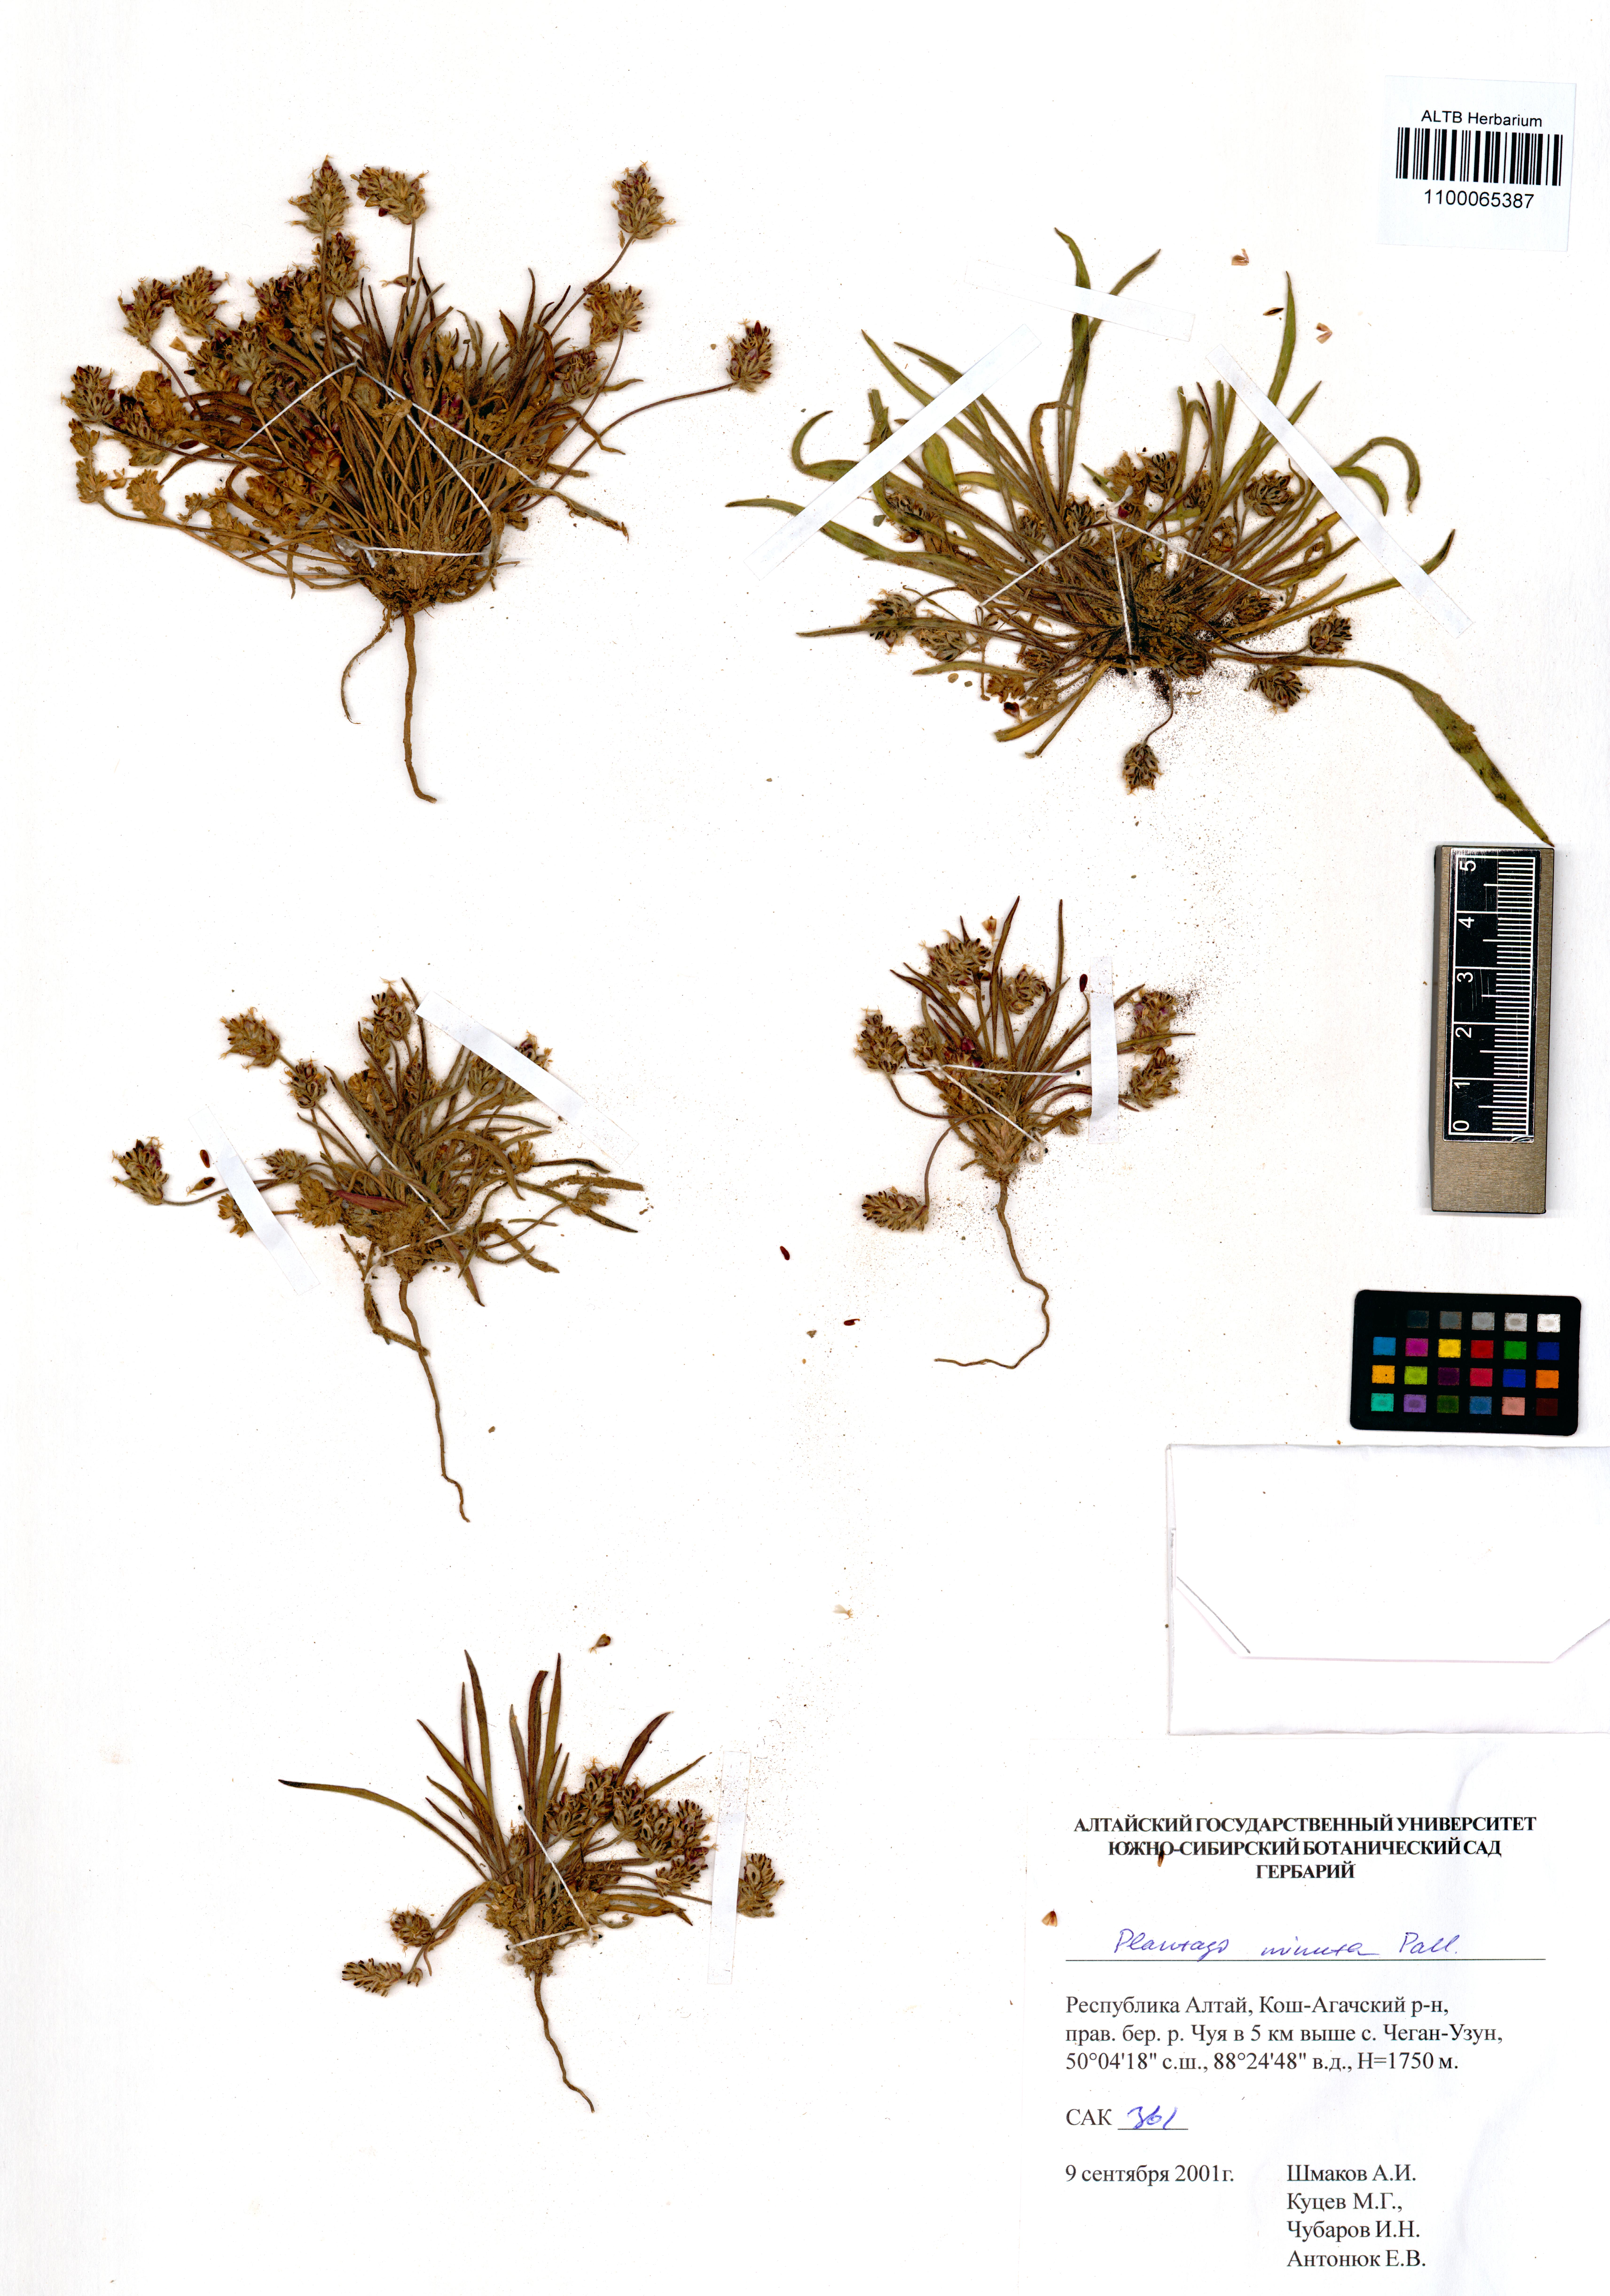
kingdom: Plantae
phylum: Tracheophyta
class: Magnoliopsida
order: Lamiales
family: Plantaginaceae
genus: Plantago
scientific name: Plantago minuta
